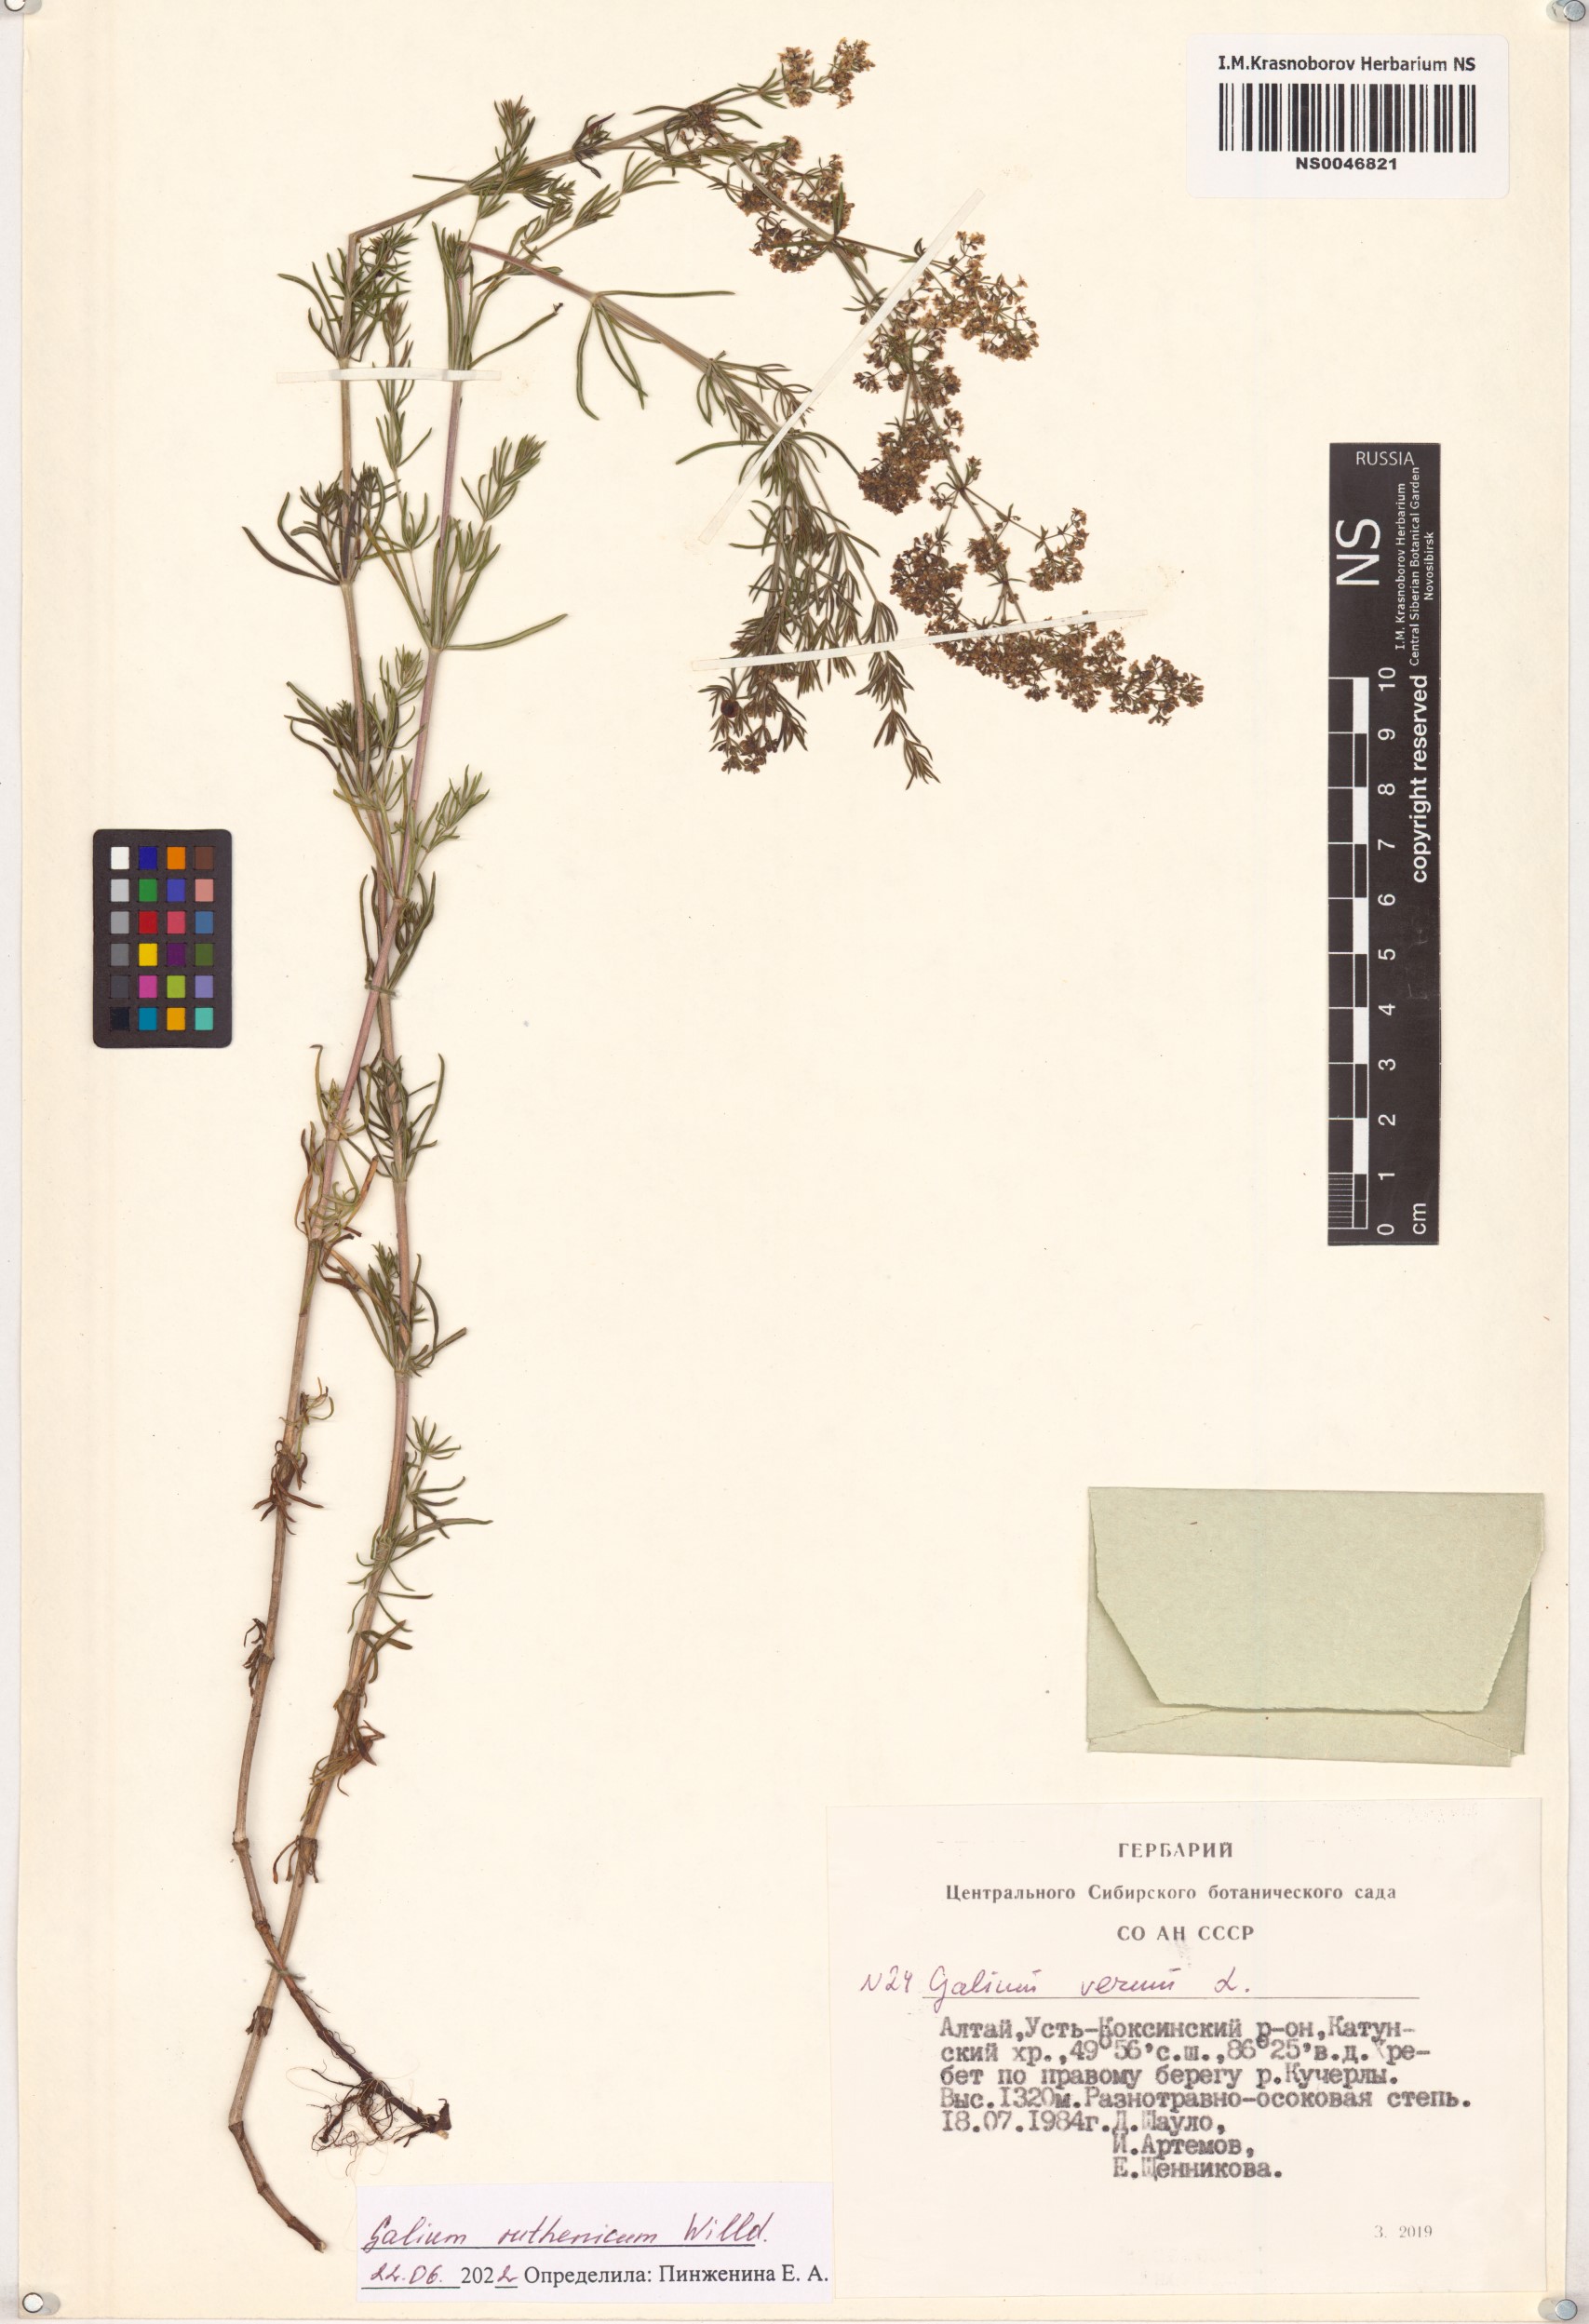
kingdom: Plantae
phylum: Tracheophyta
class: Magnoliopsida
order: Gentianales
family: Rubiaceae
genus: Galium
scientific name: Galium verum
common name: Lady's bedstraw
